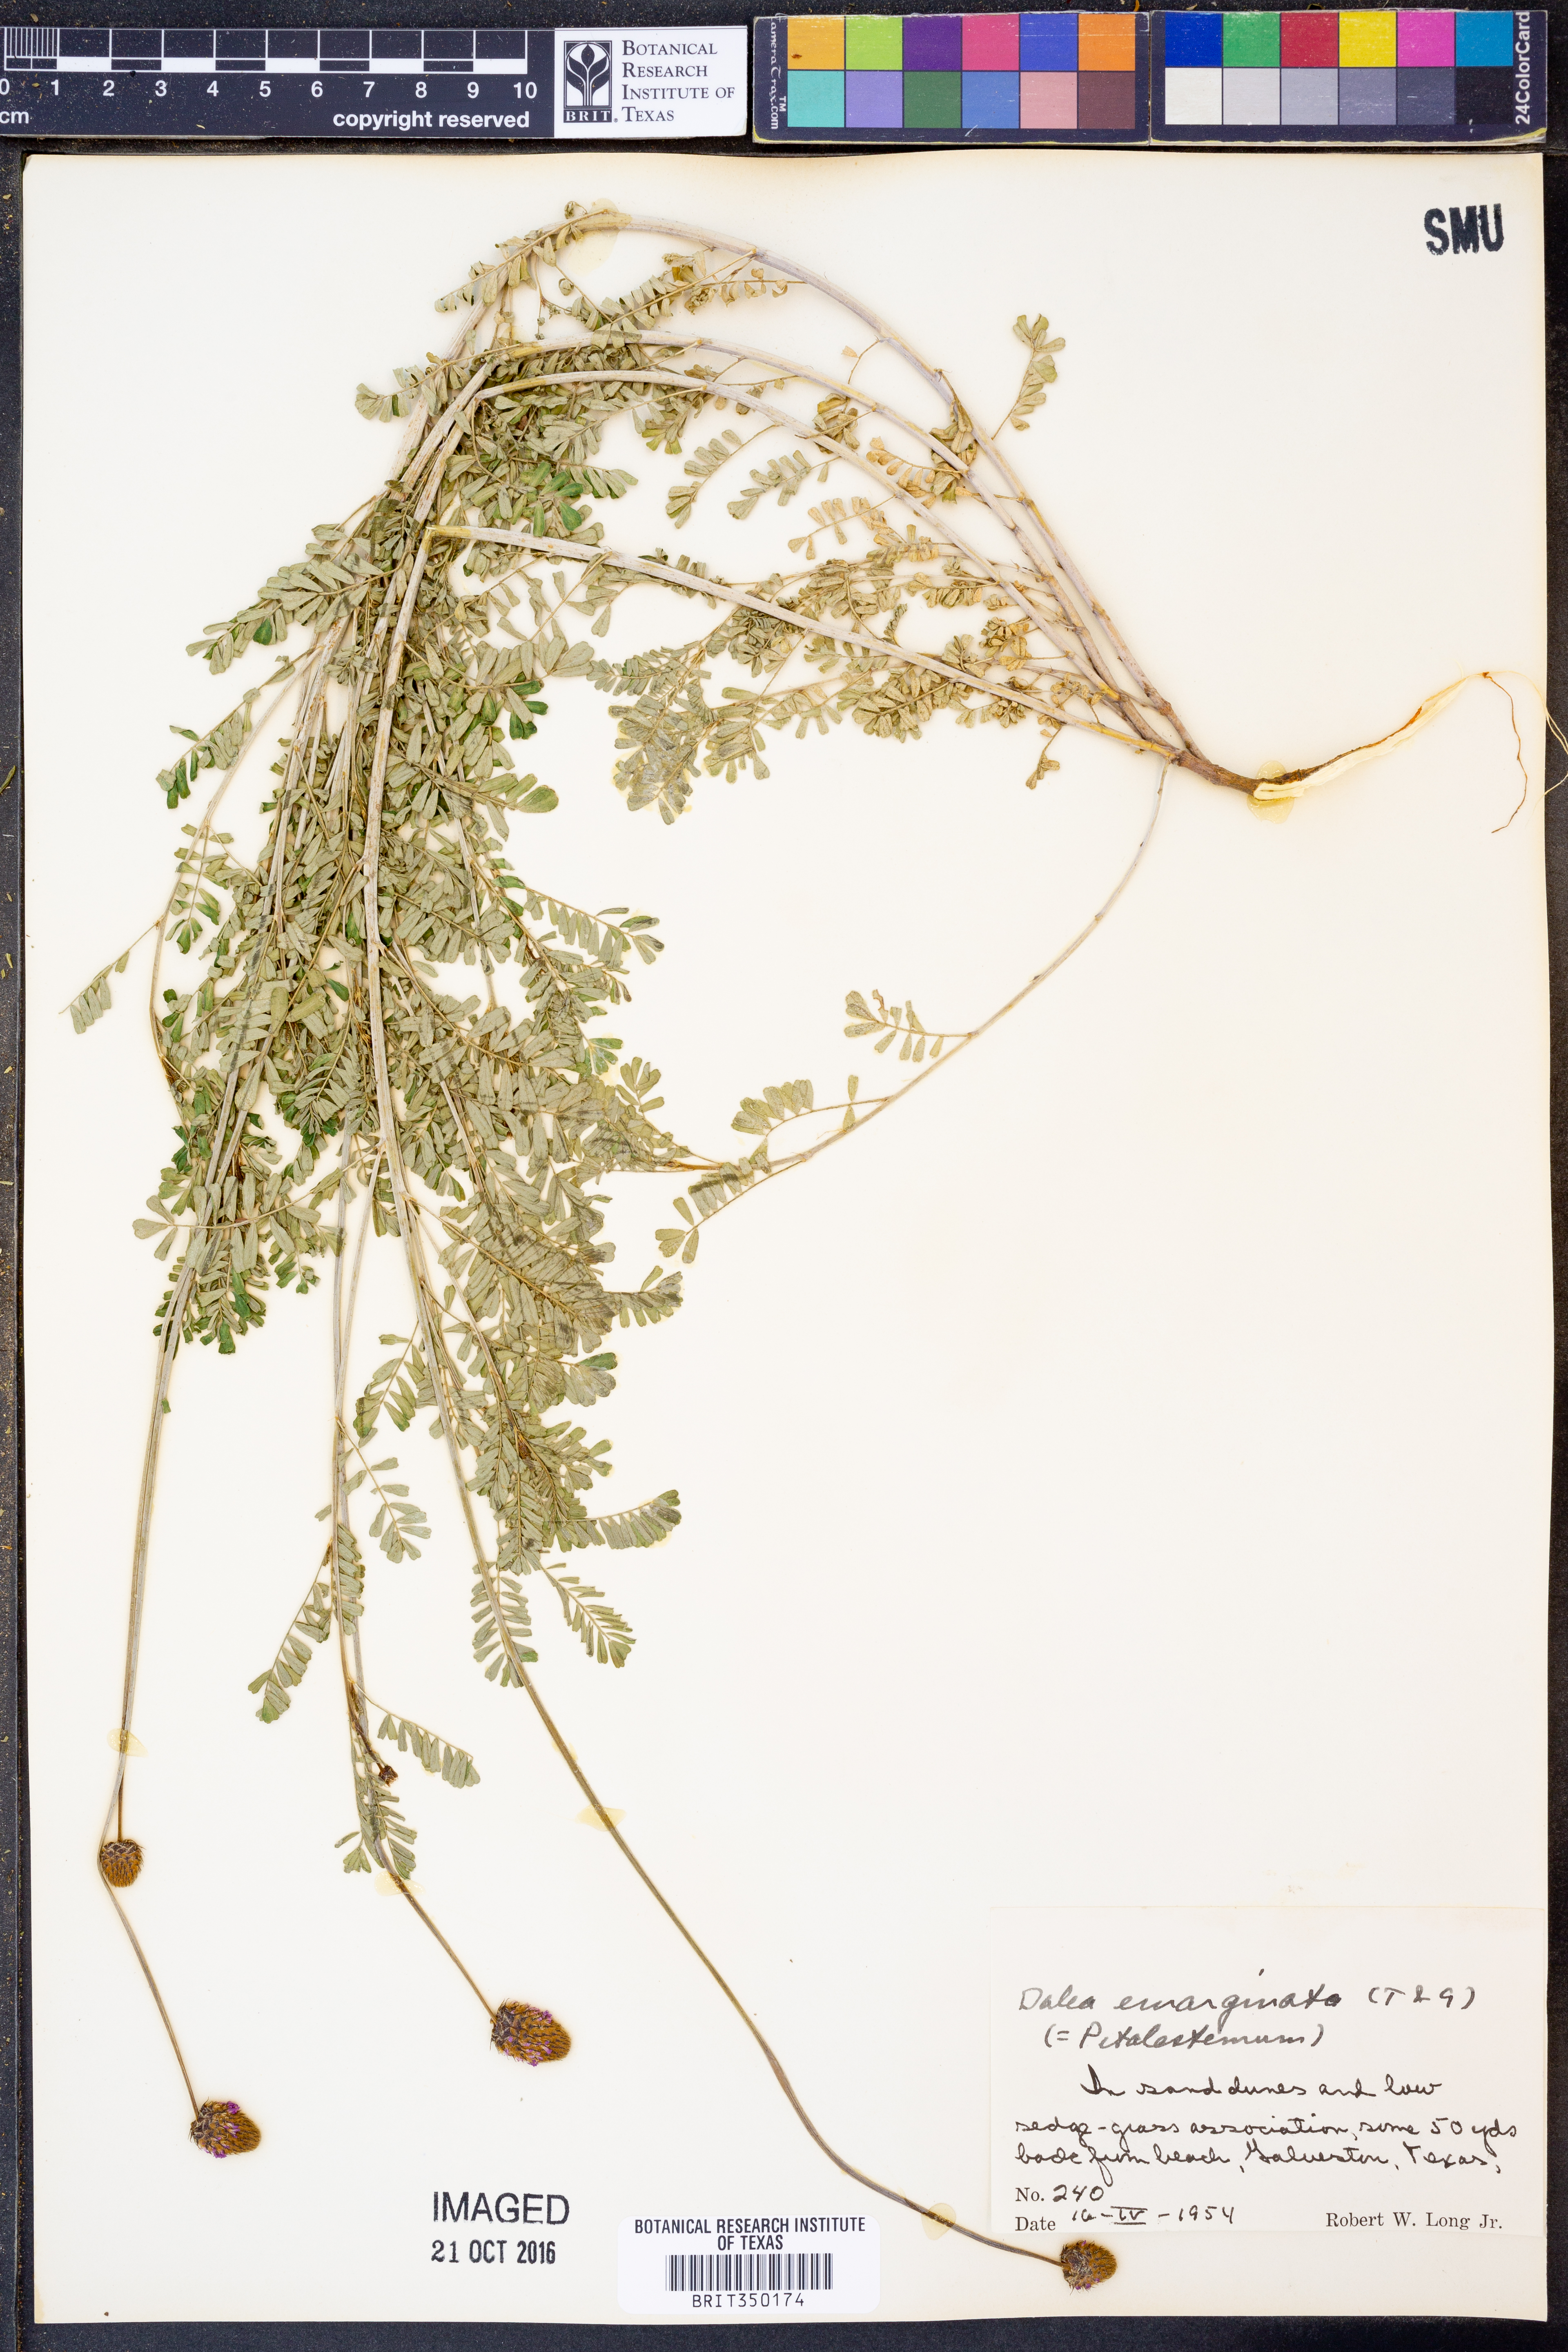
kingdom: Plantae
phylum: Tracheophyta
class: Magnoliopsida
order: Fabales
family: Fabaceae
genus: Dalea
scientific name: Dalea emarginata
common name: Wedgeleaf prairie clover
